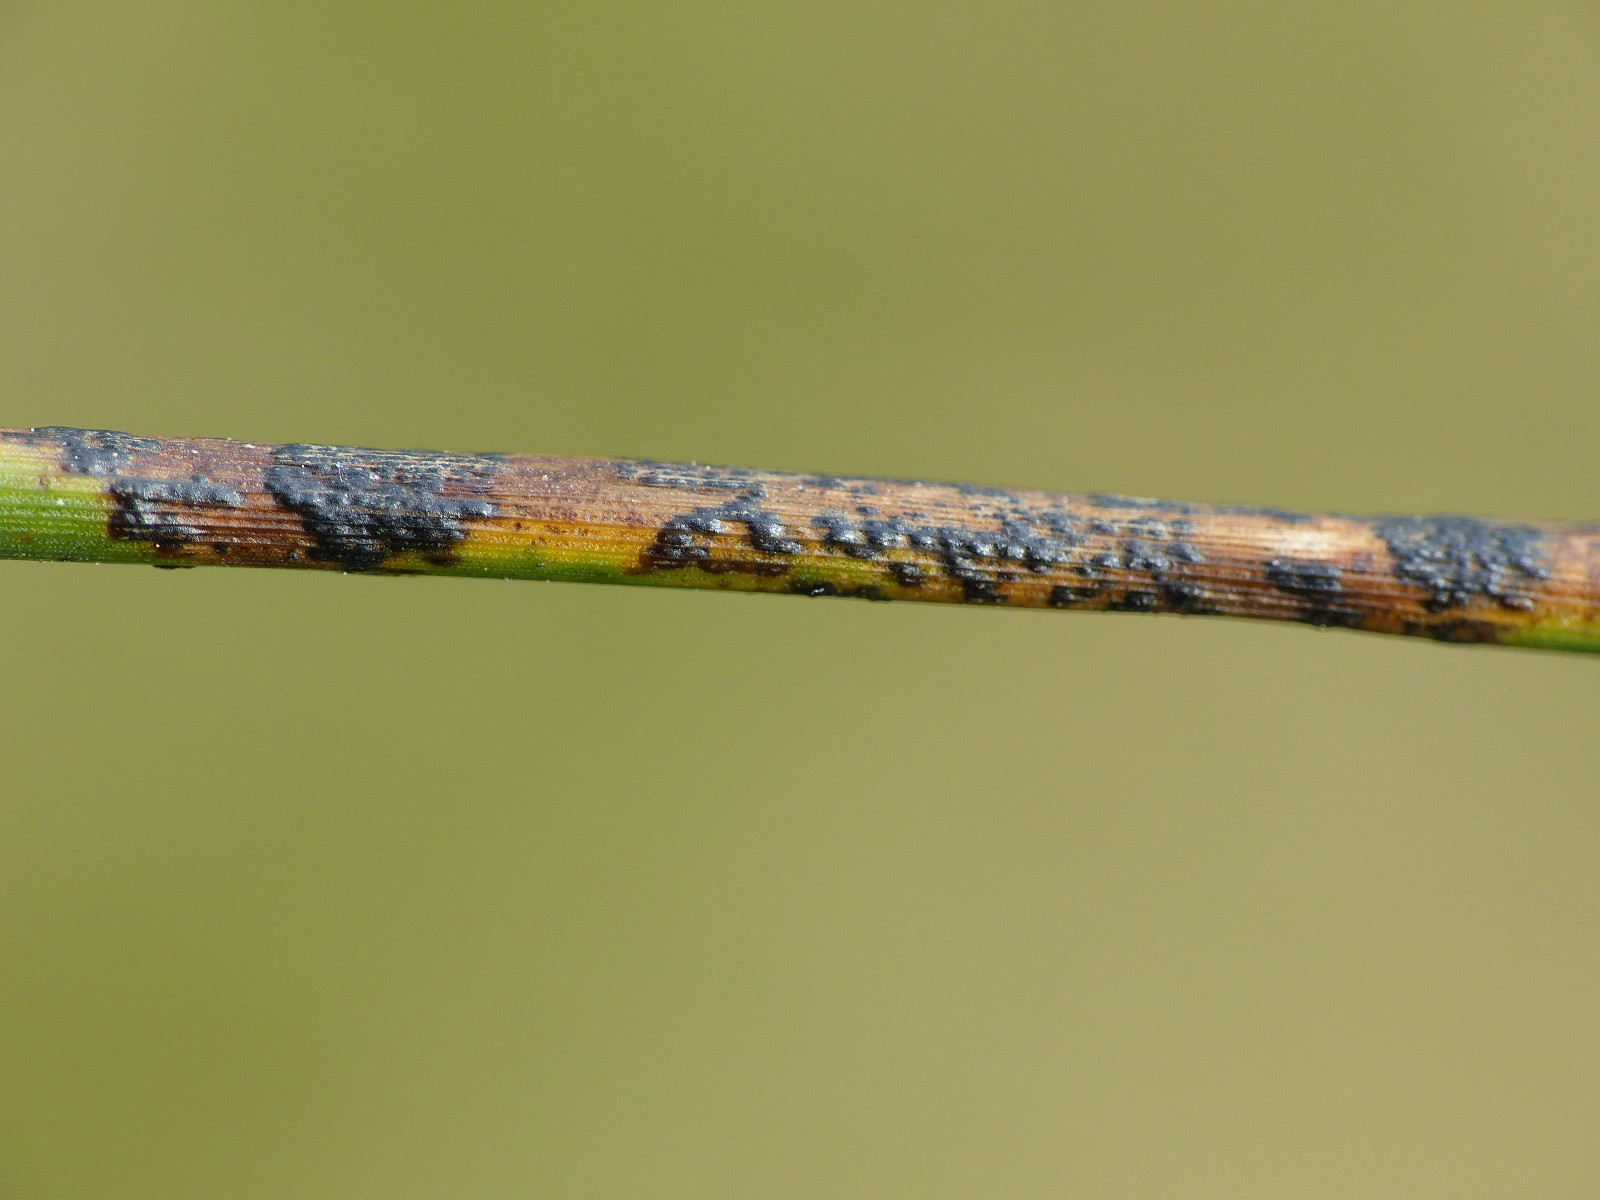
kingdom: Fungi
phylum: Ascomycota
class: Sordariomycetes
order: Phyllachorales
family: Phyllachoraceae
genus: Phyllachora
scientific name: Phyllachora junci
